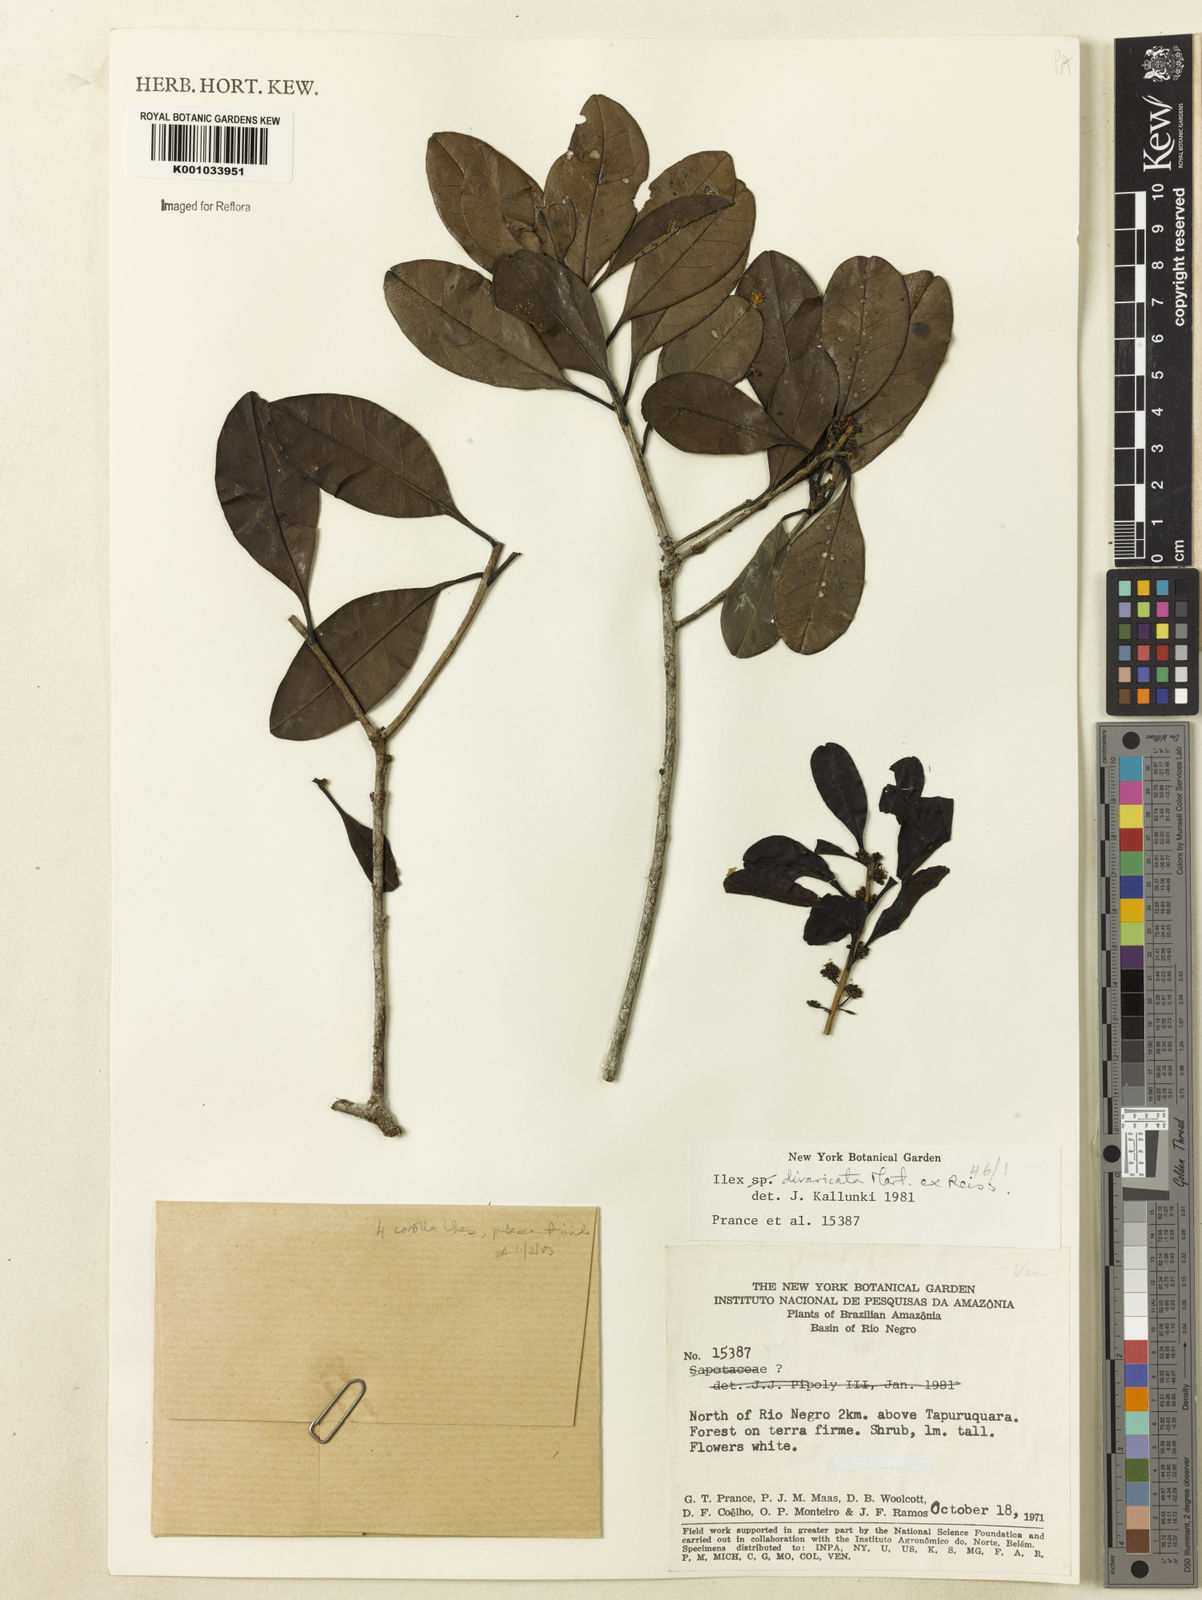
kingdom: Plantae
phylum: Tracheophyta
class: Magnoliopsida
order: Aquifoliales
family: Aquifoliaceae
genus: Ilex
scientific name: Ilex divaricata
